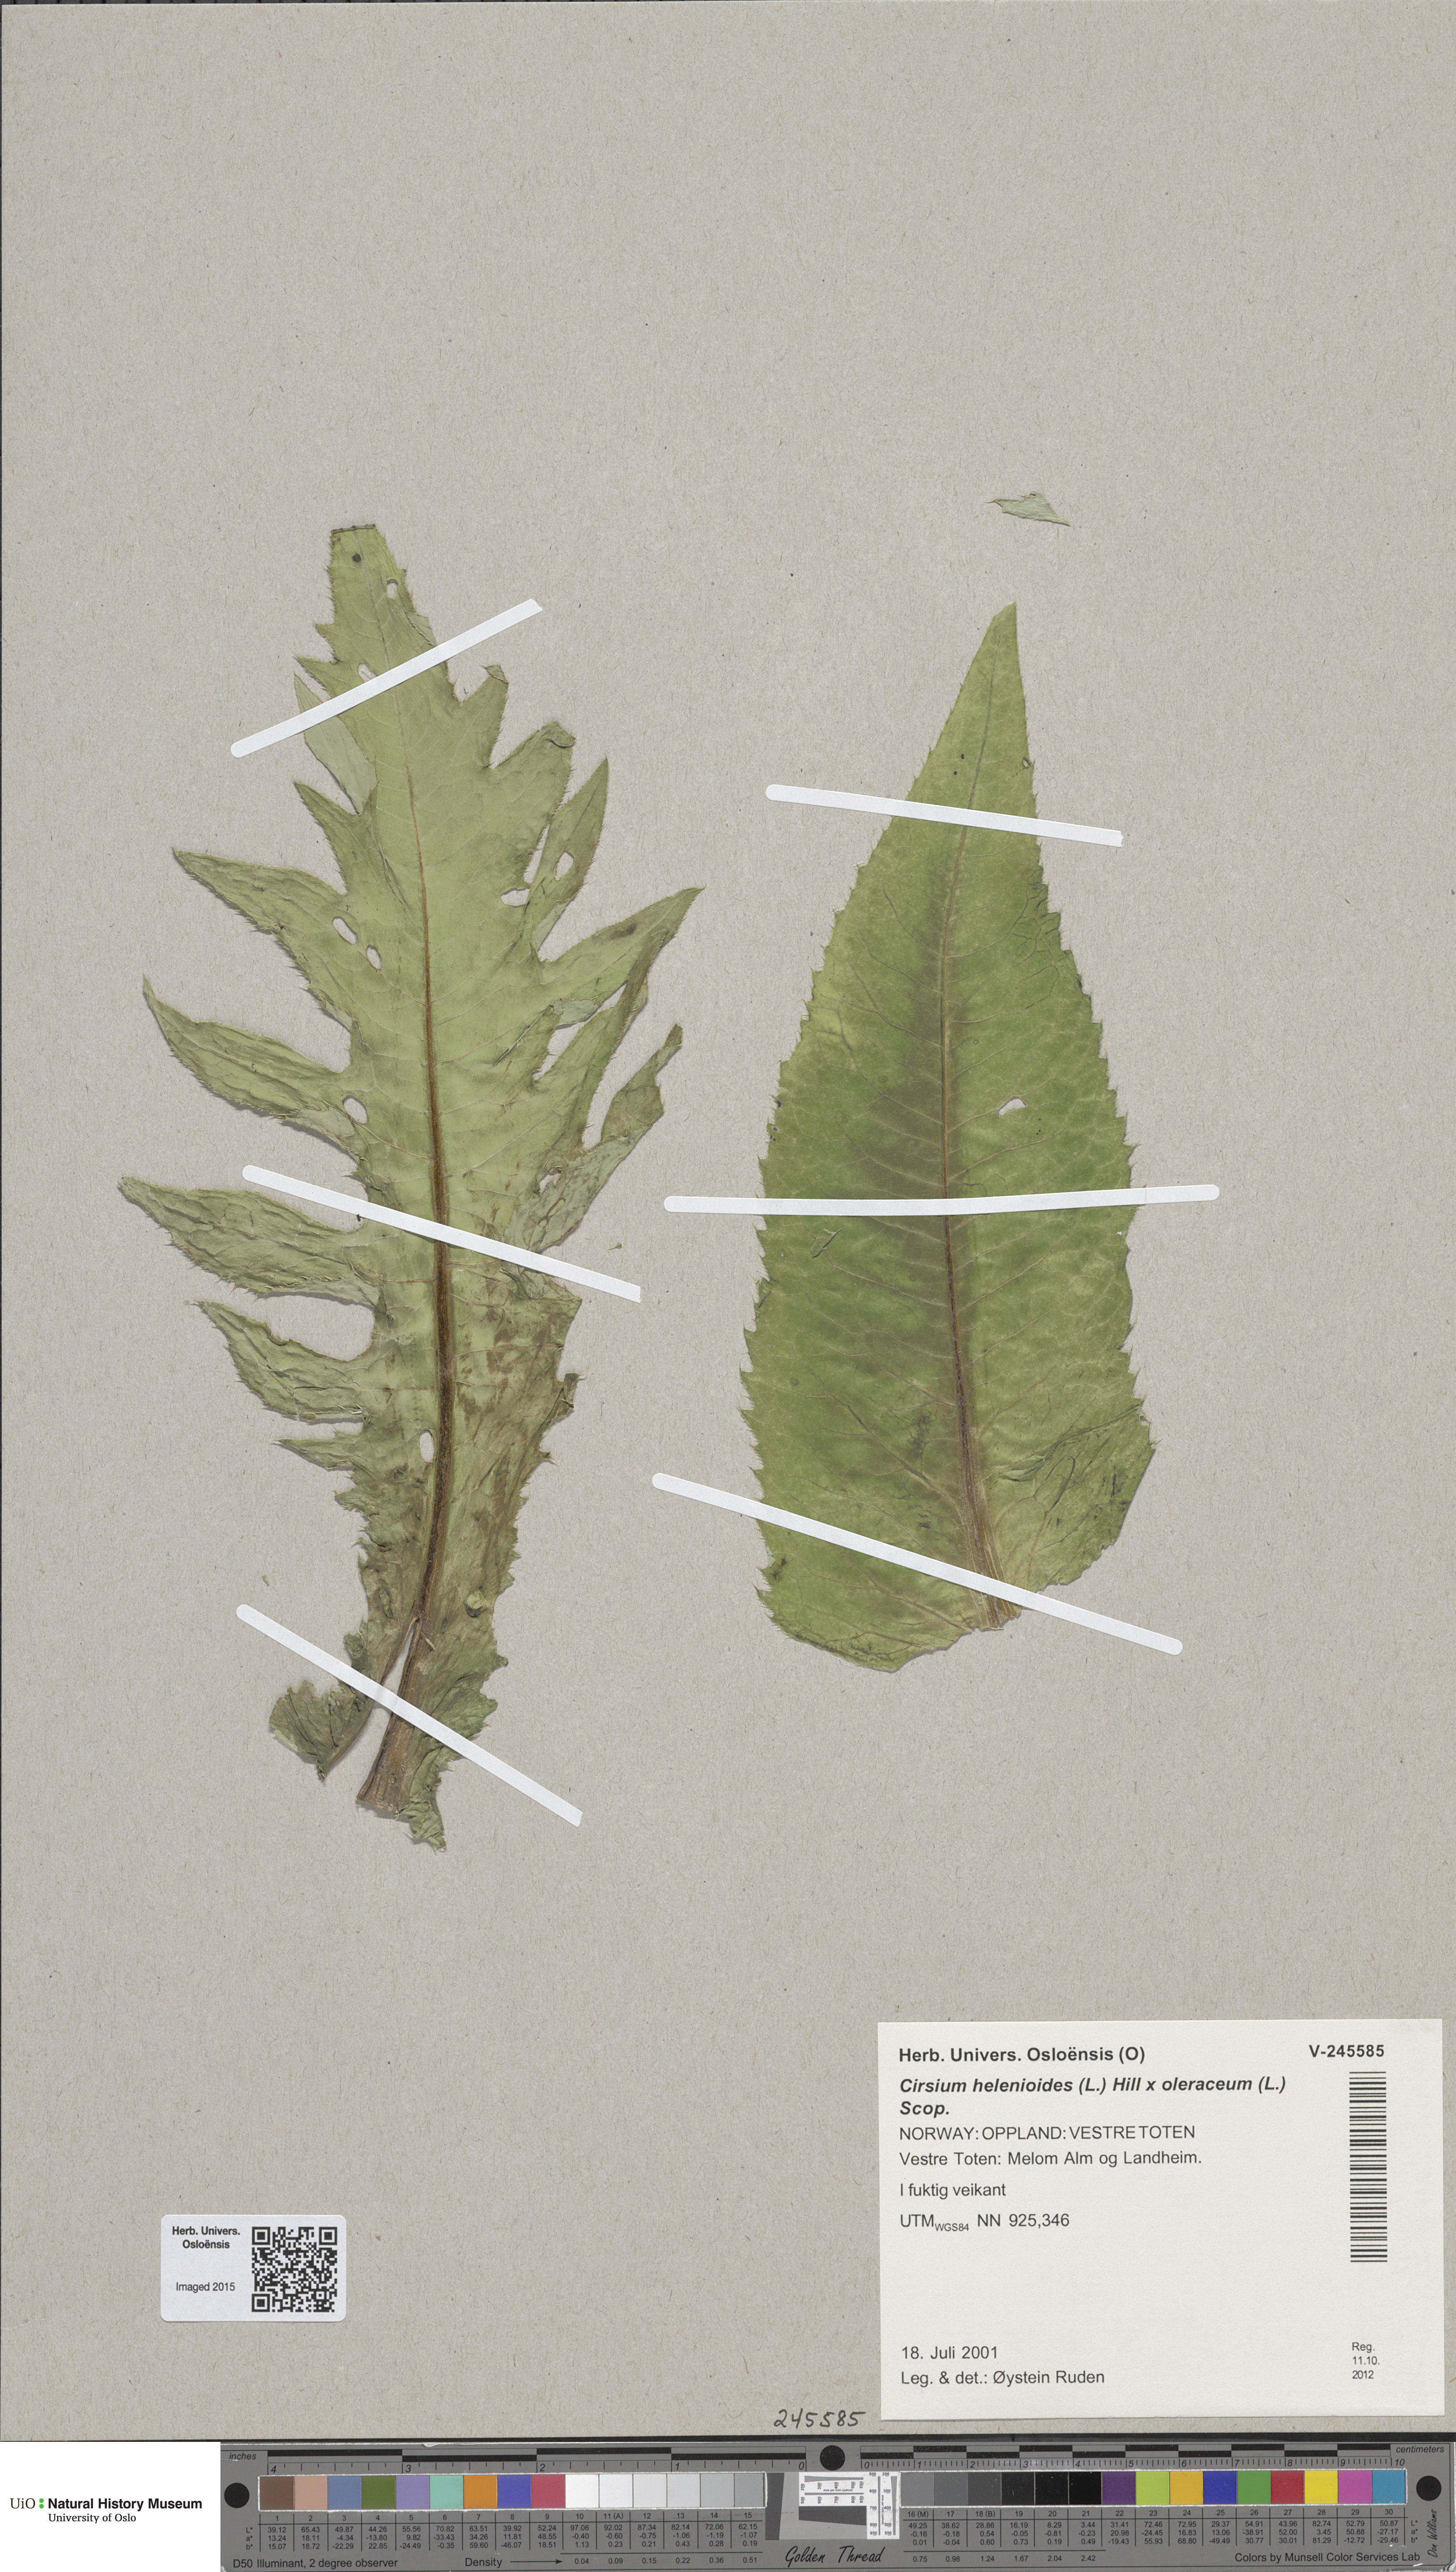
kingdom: Plantae
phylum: Tracheophyta
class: Magnoliopsida
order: Asterales
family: Asteraceae
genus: Cirsium
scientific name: Cirsium
